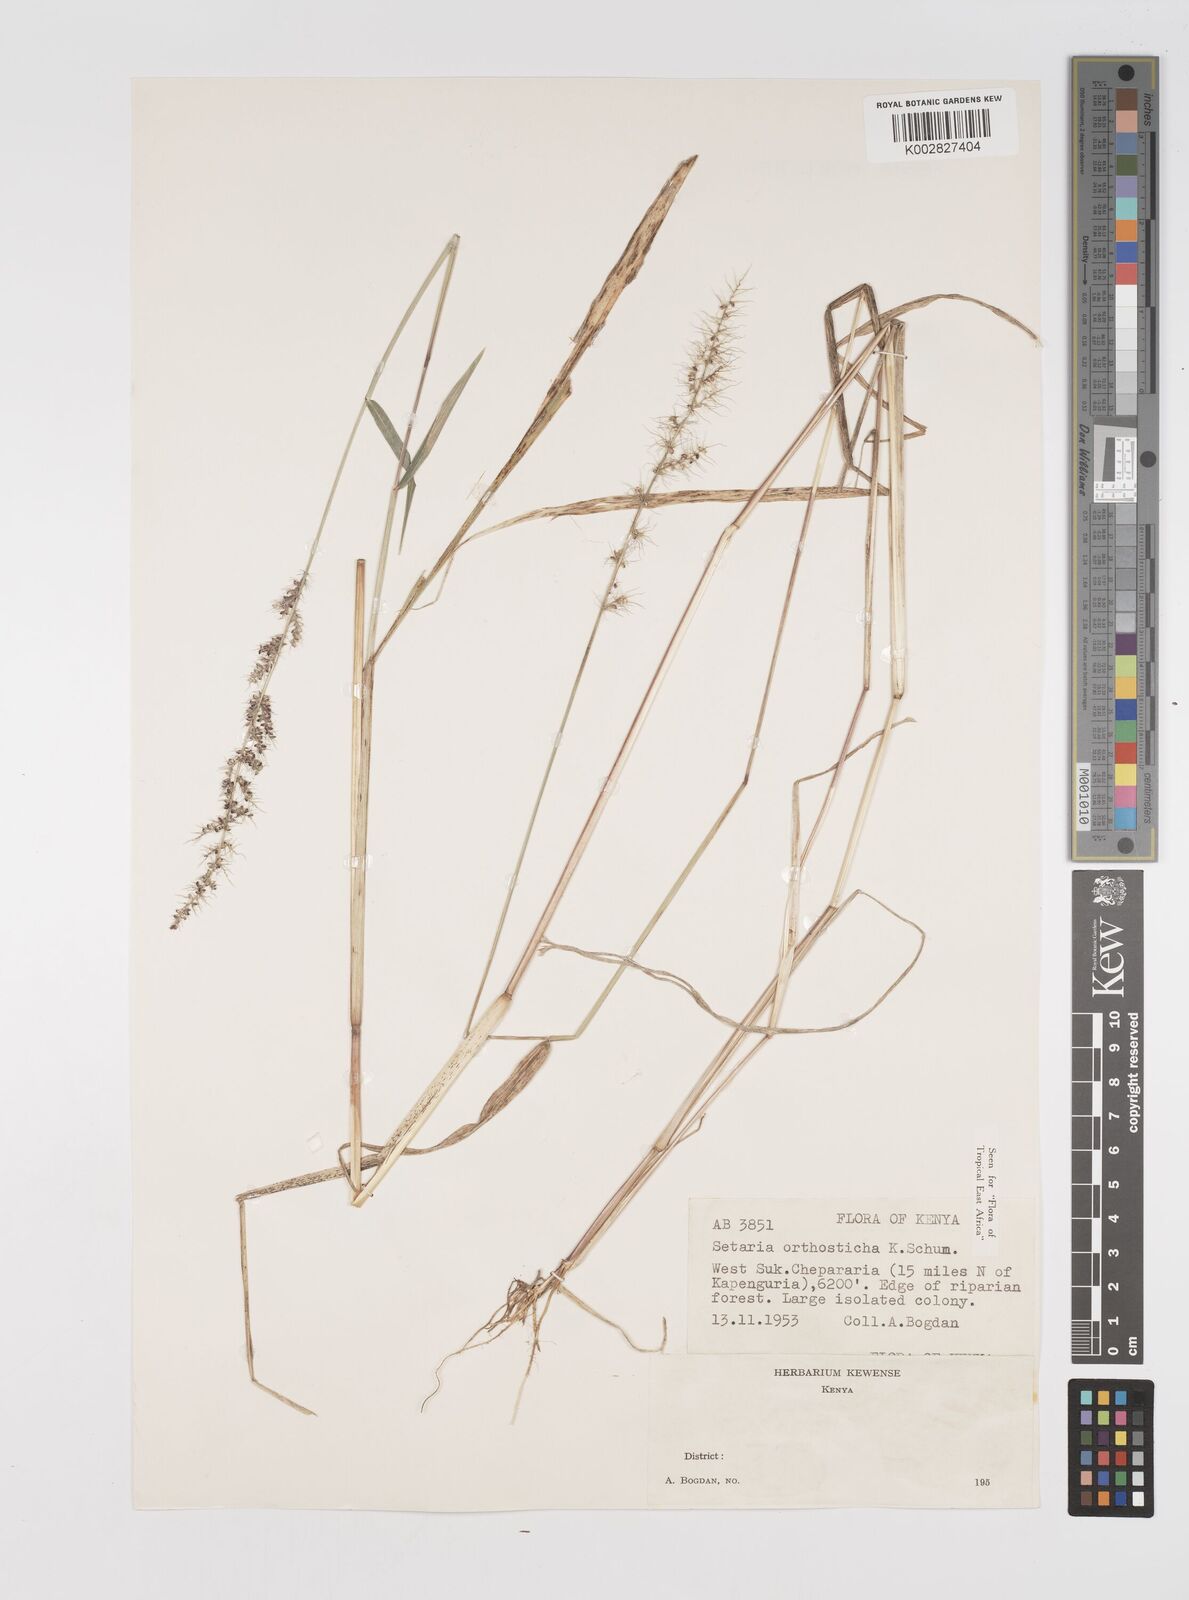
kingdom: Plantae
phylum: Tracheophyta
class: Liliopsida
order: Poales
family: Poaceae
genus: Setaria
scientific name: Setaria orthosticha
